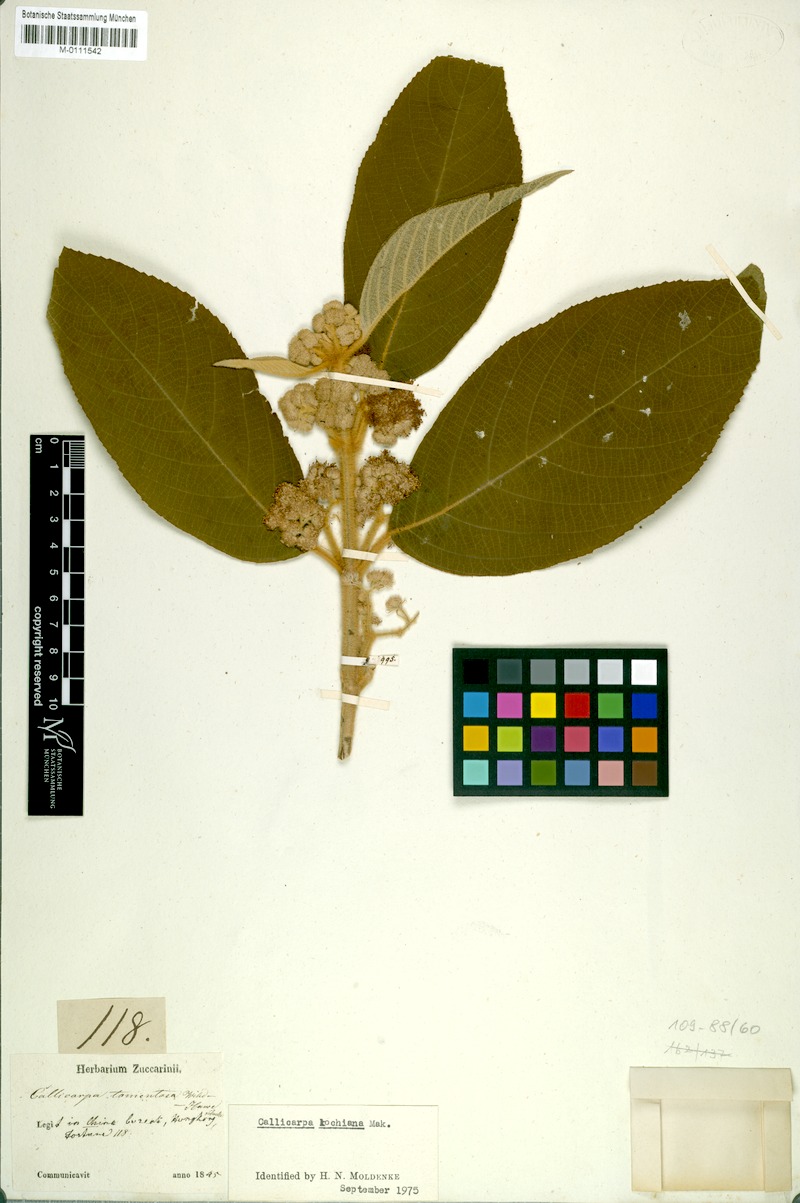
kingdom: Plantae
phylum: Tracheophyta
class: Magnoliopsida
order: Lamiales
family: Lamiaceae
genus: Callicarpa
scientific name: Callicarpa kochiana
